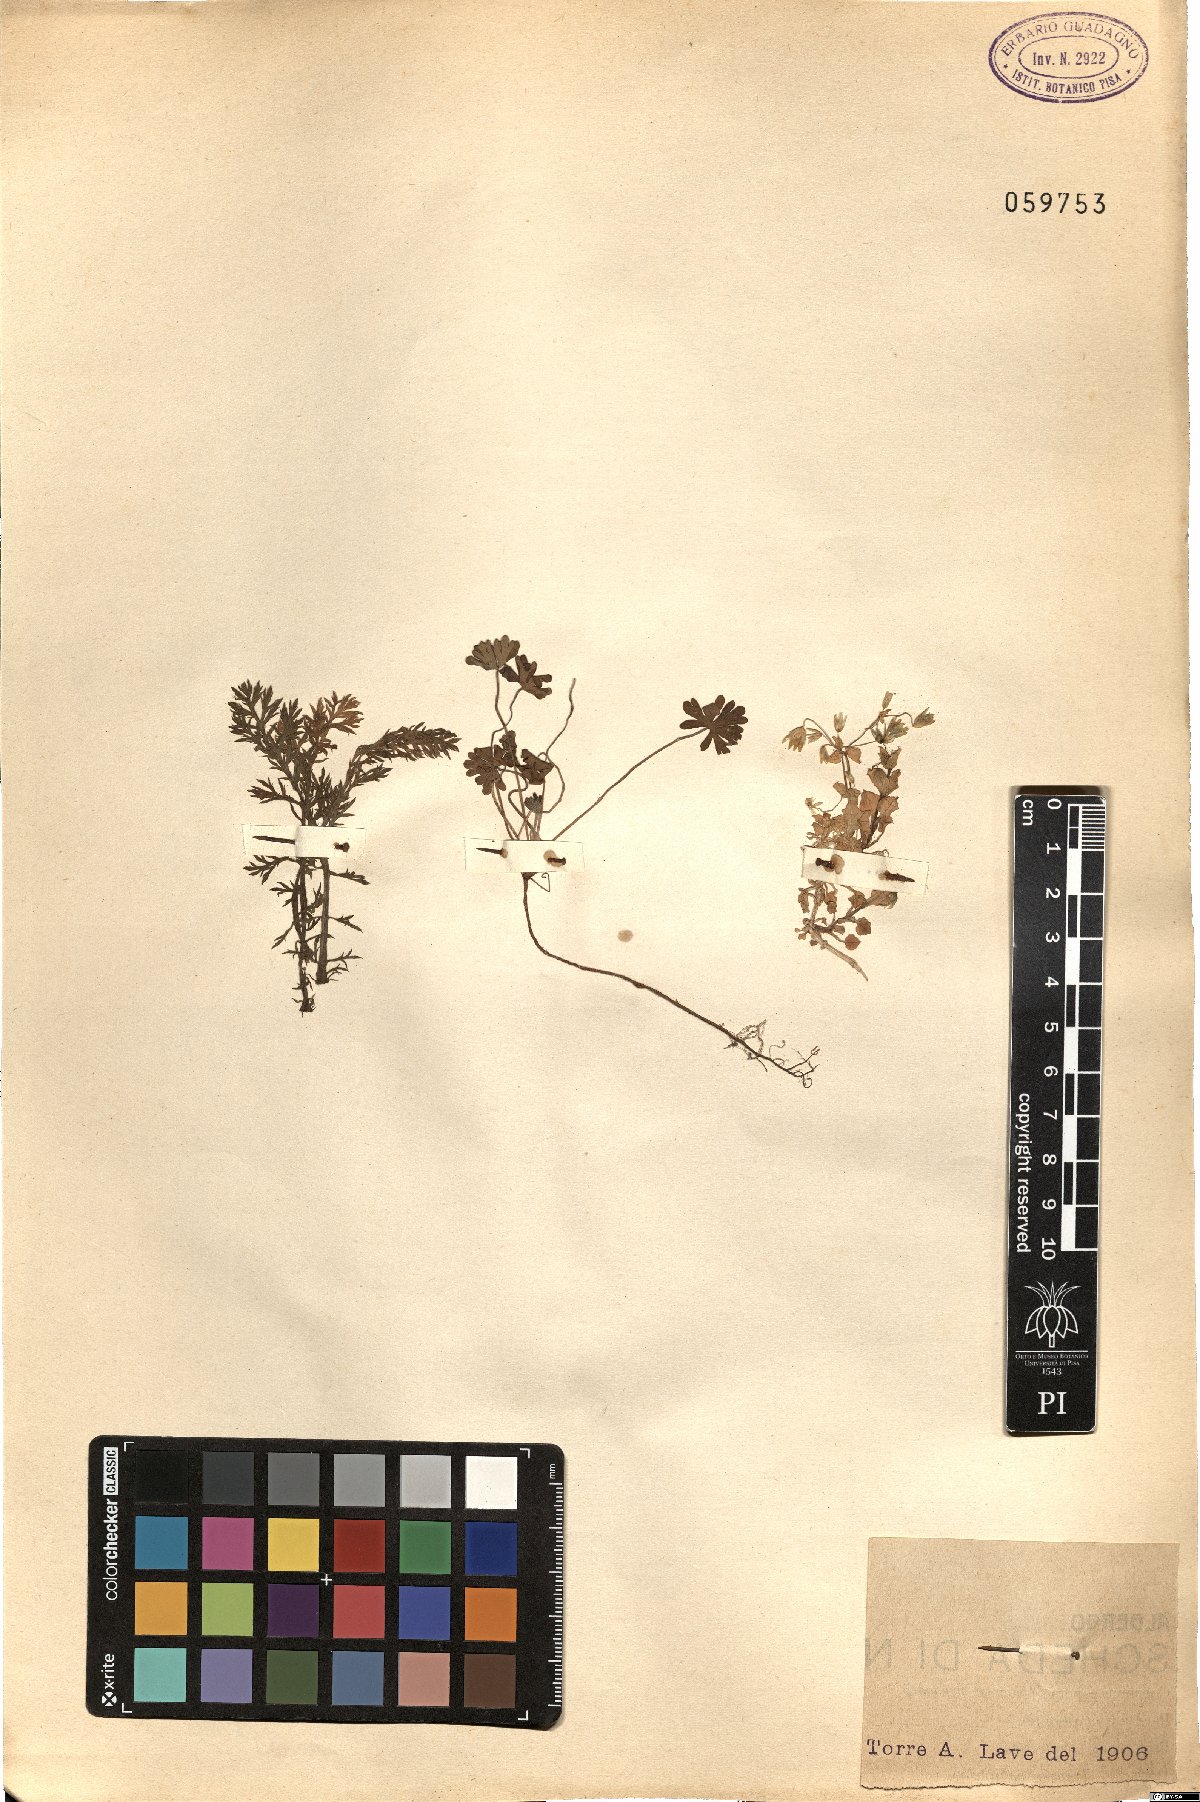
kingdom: Plantae
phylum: Tracheophyta
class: Magnoliopsida
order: Caryophyllales
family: Caryophyllaceae
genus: Cerastium
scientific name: Cerastium
